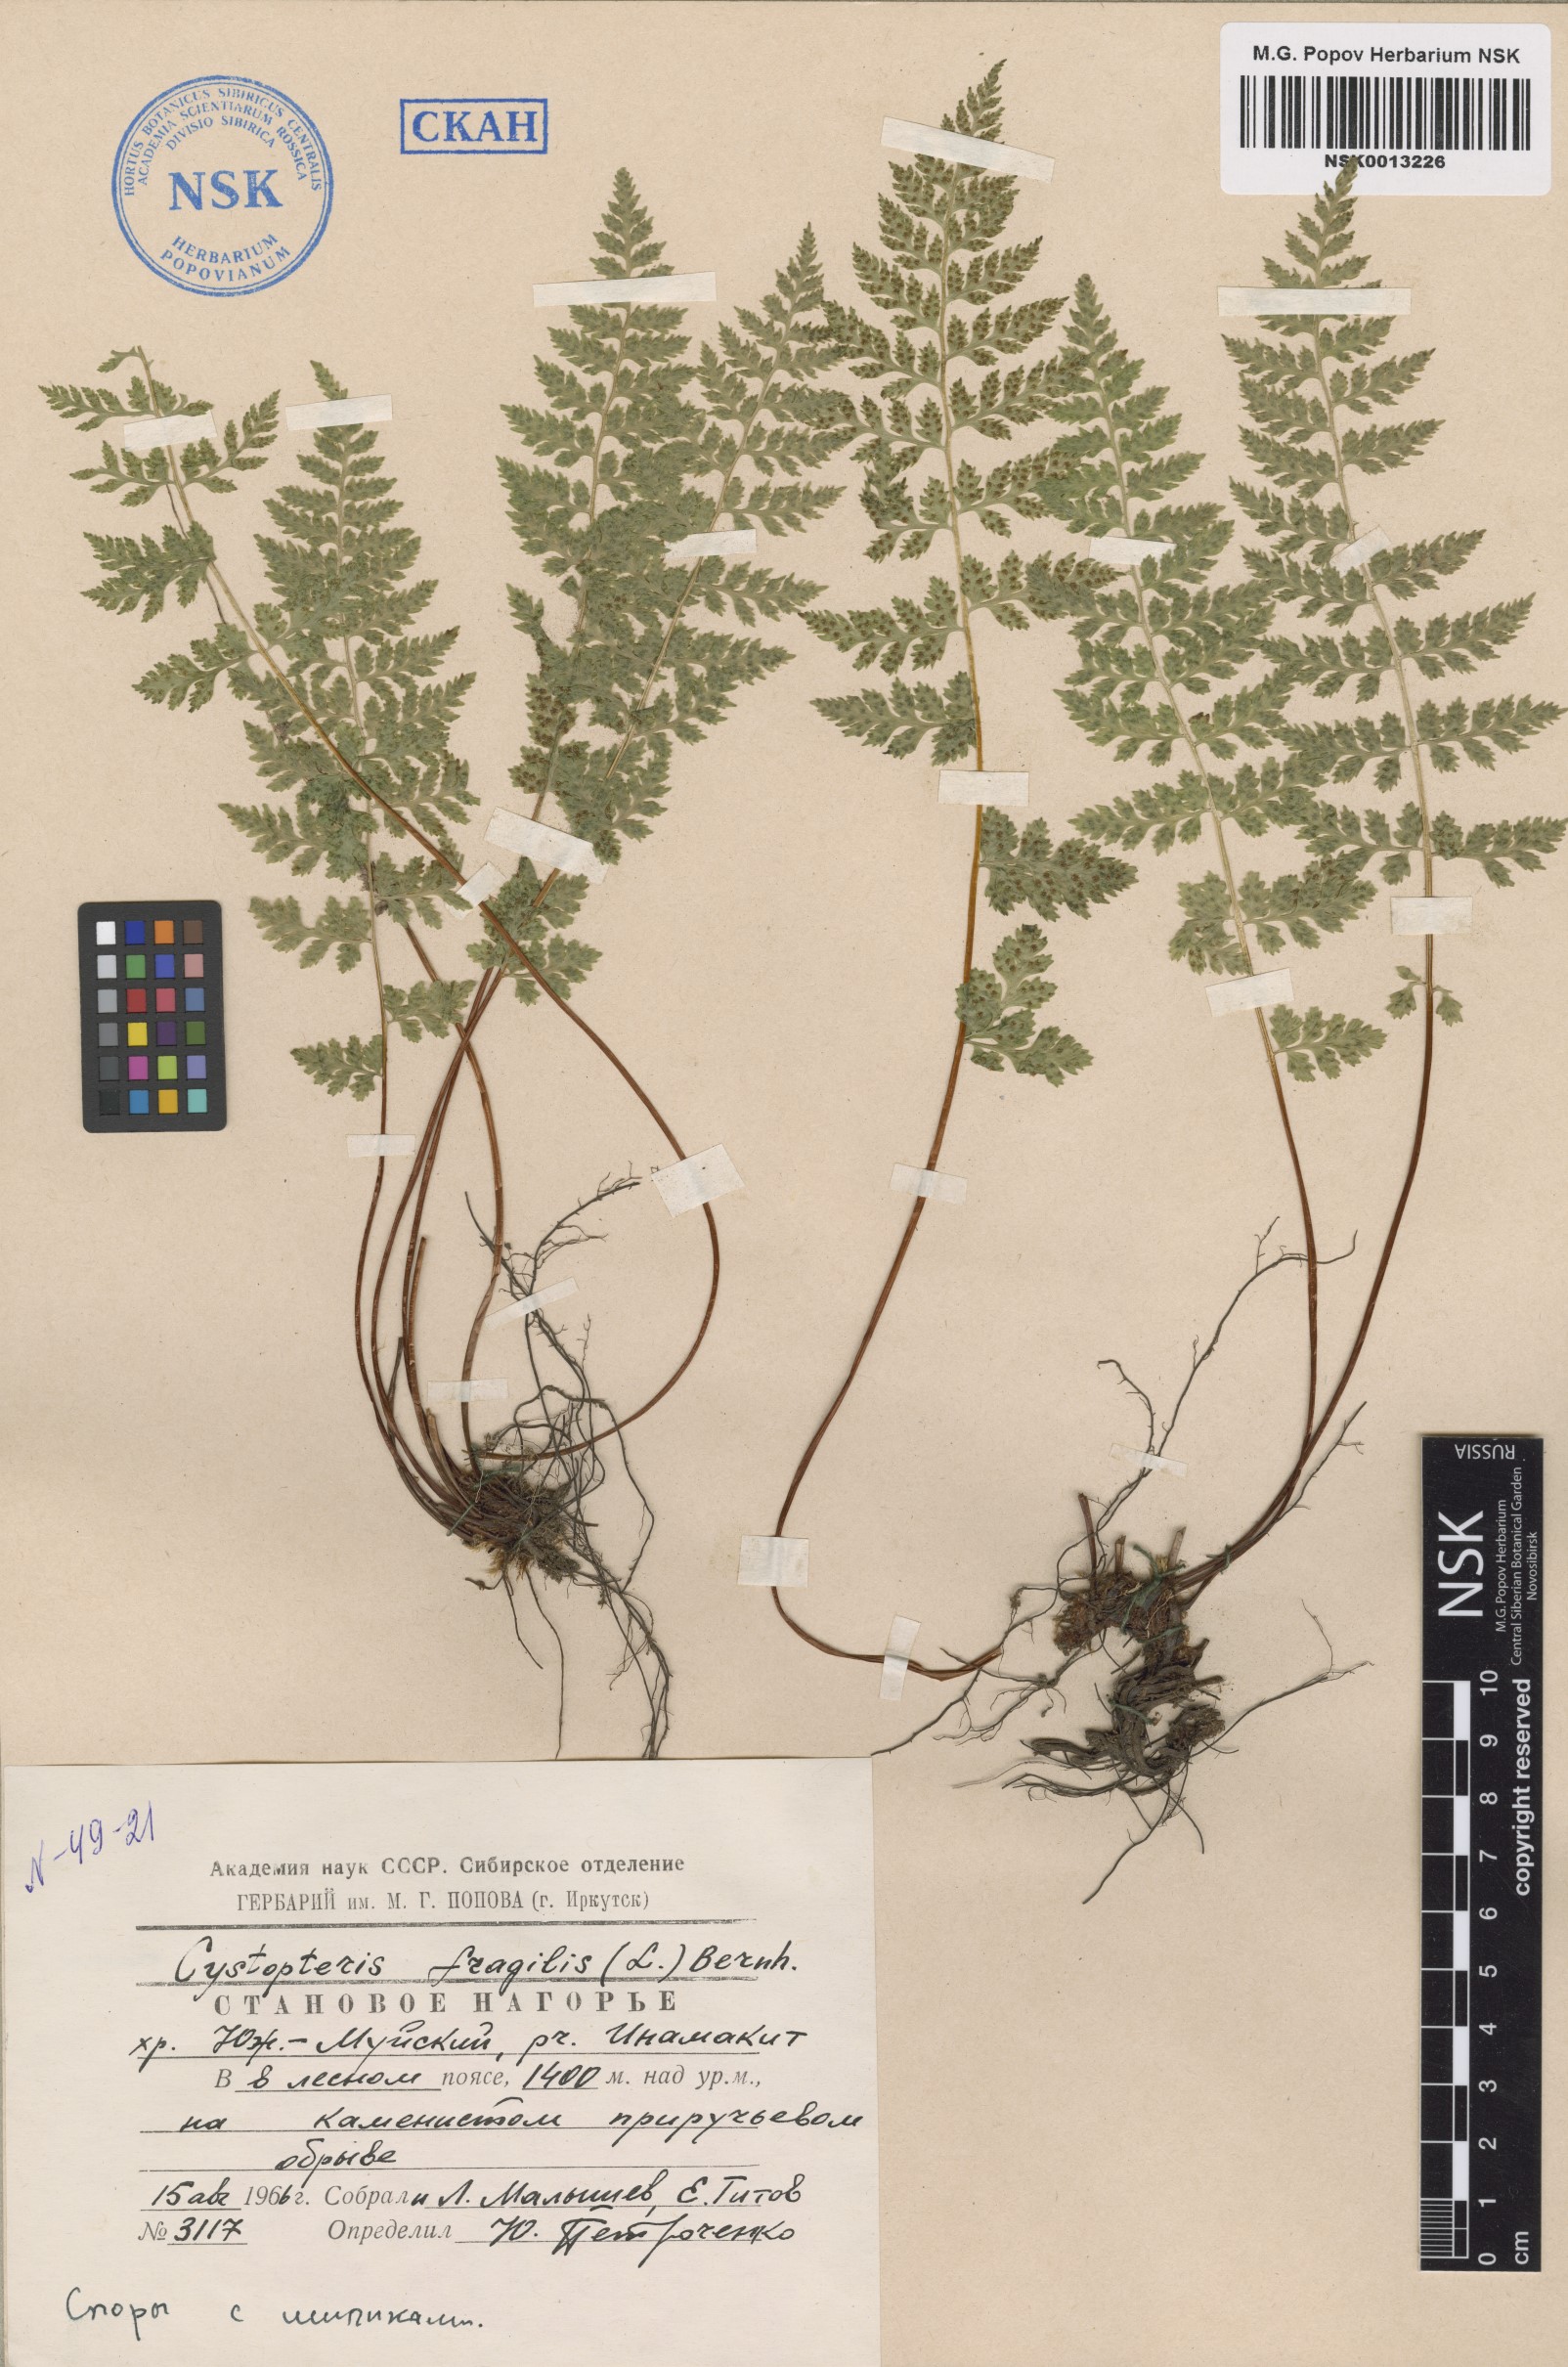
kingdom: Plantae
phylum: Tracheophyta
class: Polypodiopsida
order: Polypodiales
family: Cystopteridaceae
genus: Cystopteris
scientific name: Cystopteris fragilis
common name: Brittle bladder fern
